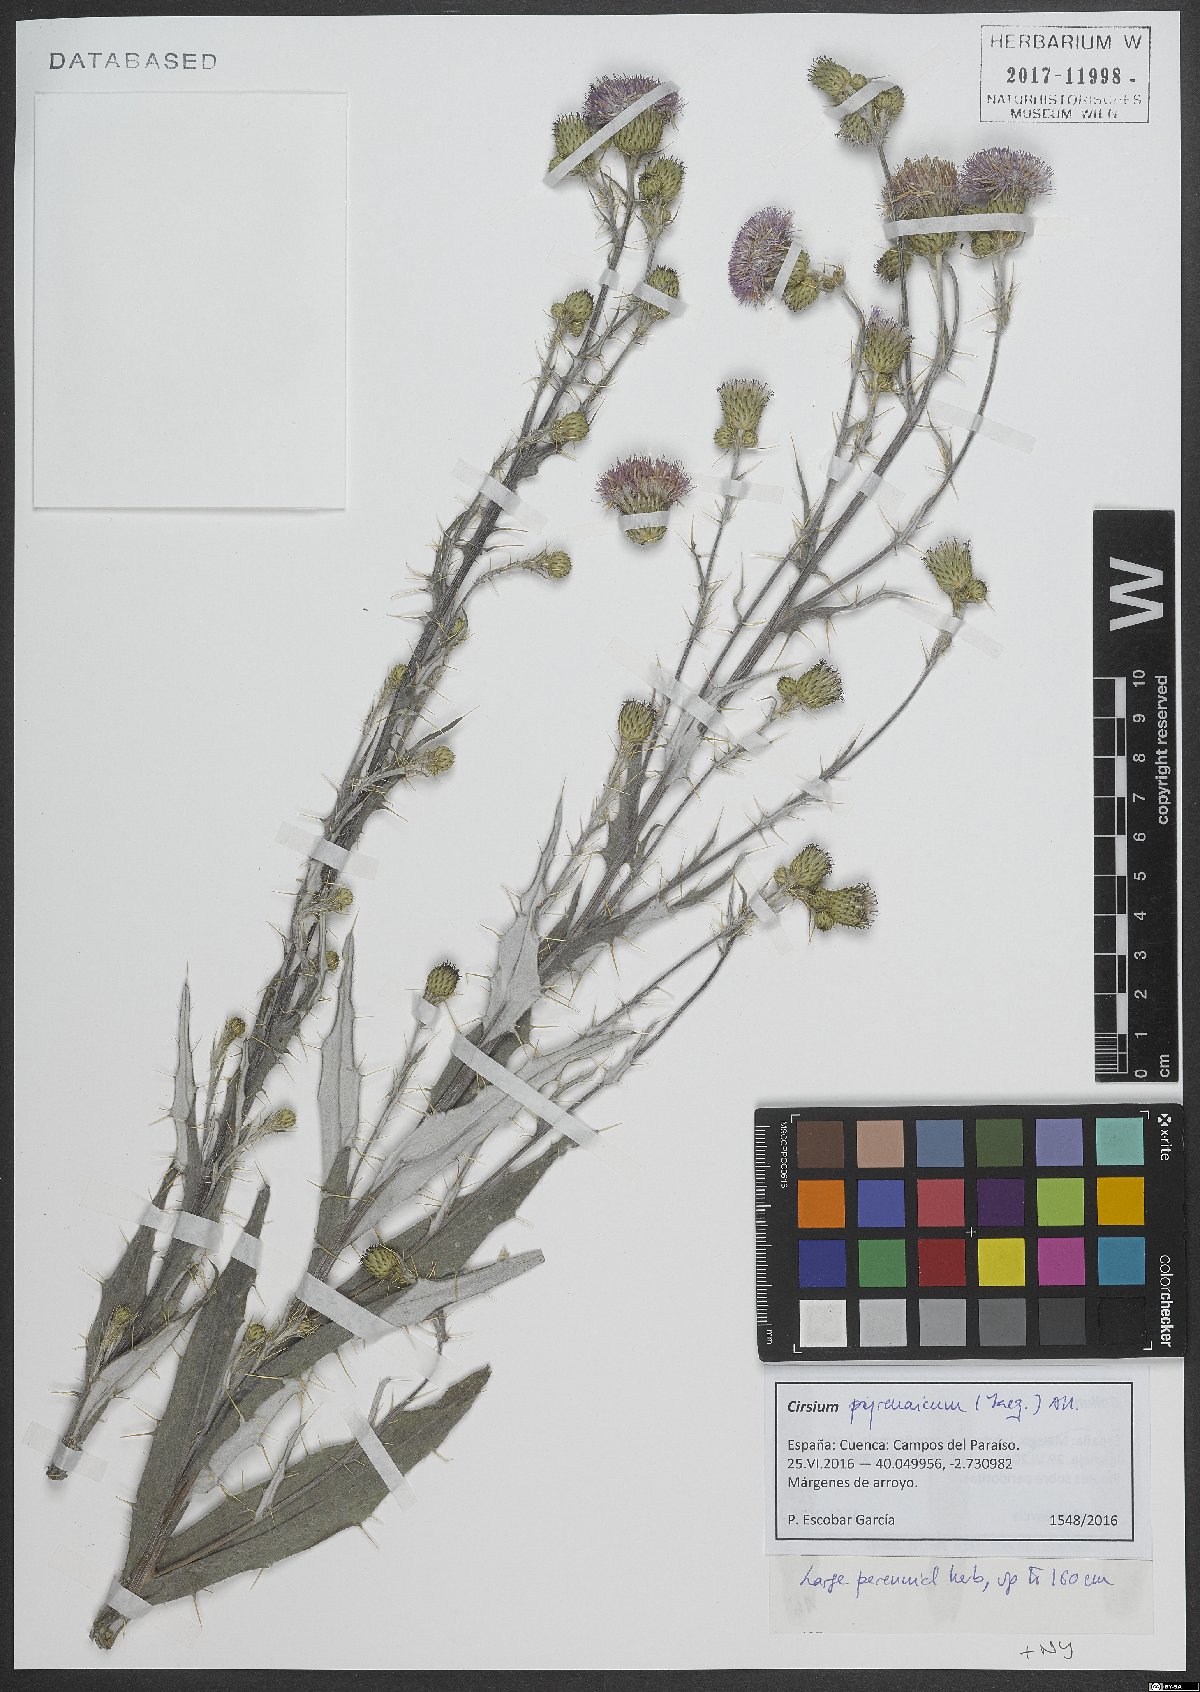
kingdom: Plantae
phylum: Tracheophyta
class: Magnoliopsida
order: Asterales
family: Asteraceae
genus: Cirsium
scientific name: Cirsium pyrenaicum
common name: Pyrenean thistle
